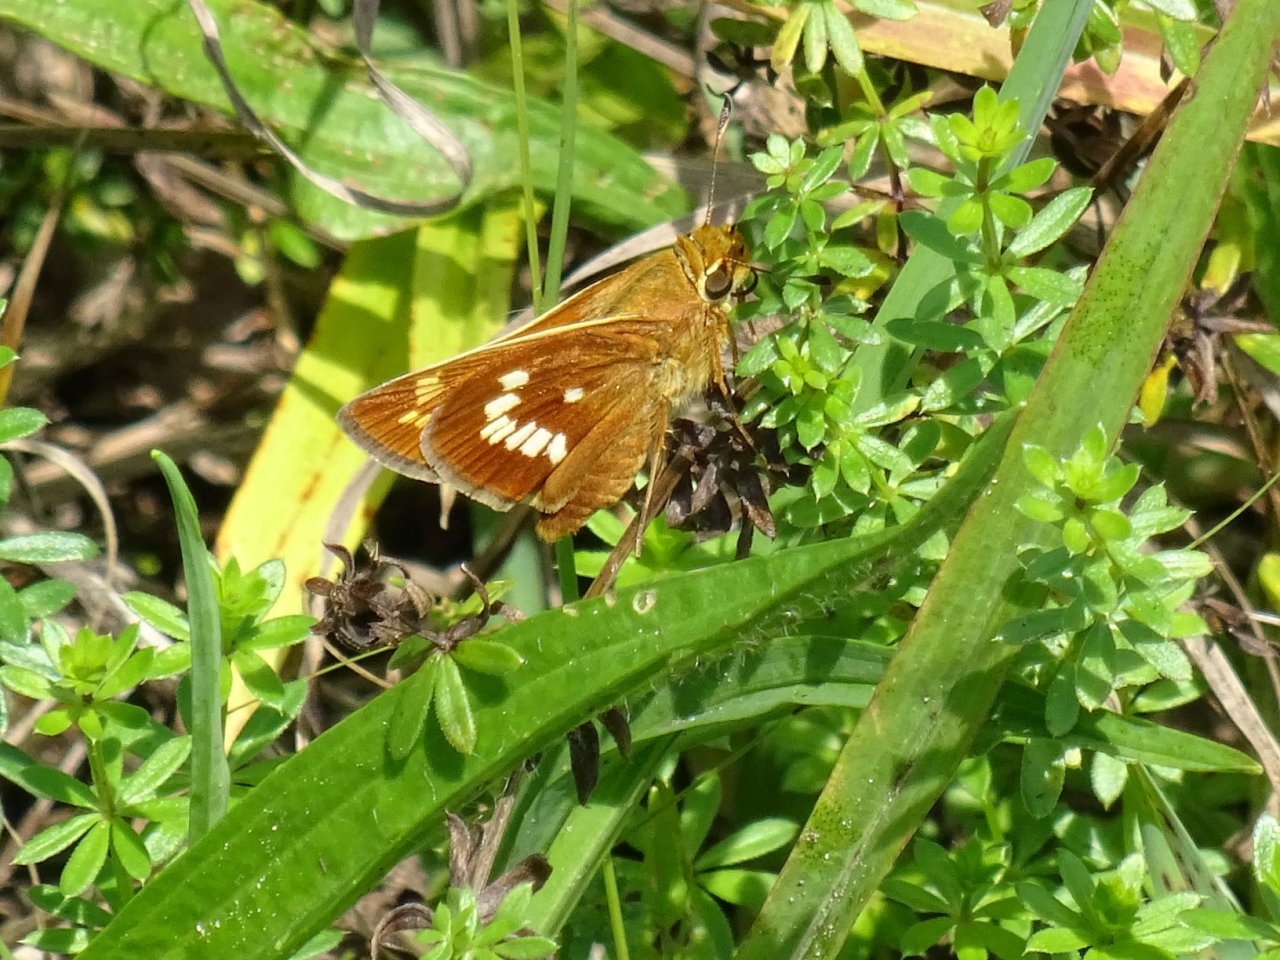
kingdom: Animalia
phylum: Arthropoda
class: Insecta
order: Lepidoptera
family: Hesperiidae
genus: Hesperia
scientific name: Hesperia leonardus
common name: Leonard's Skipper
